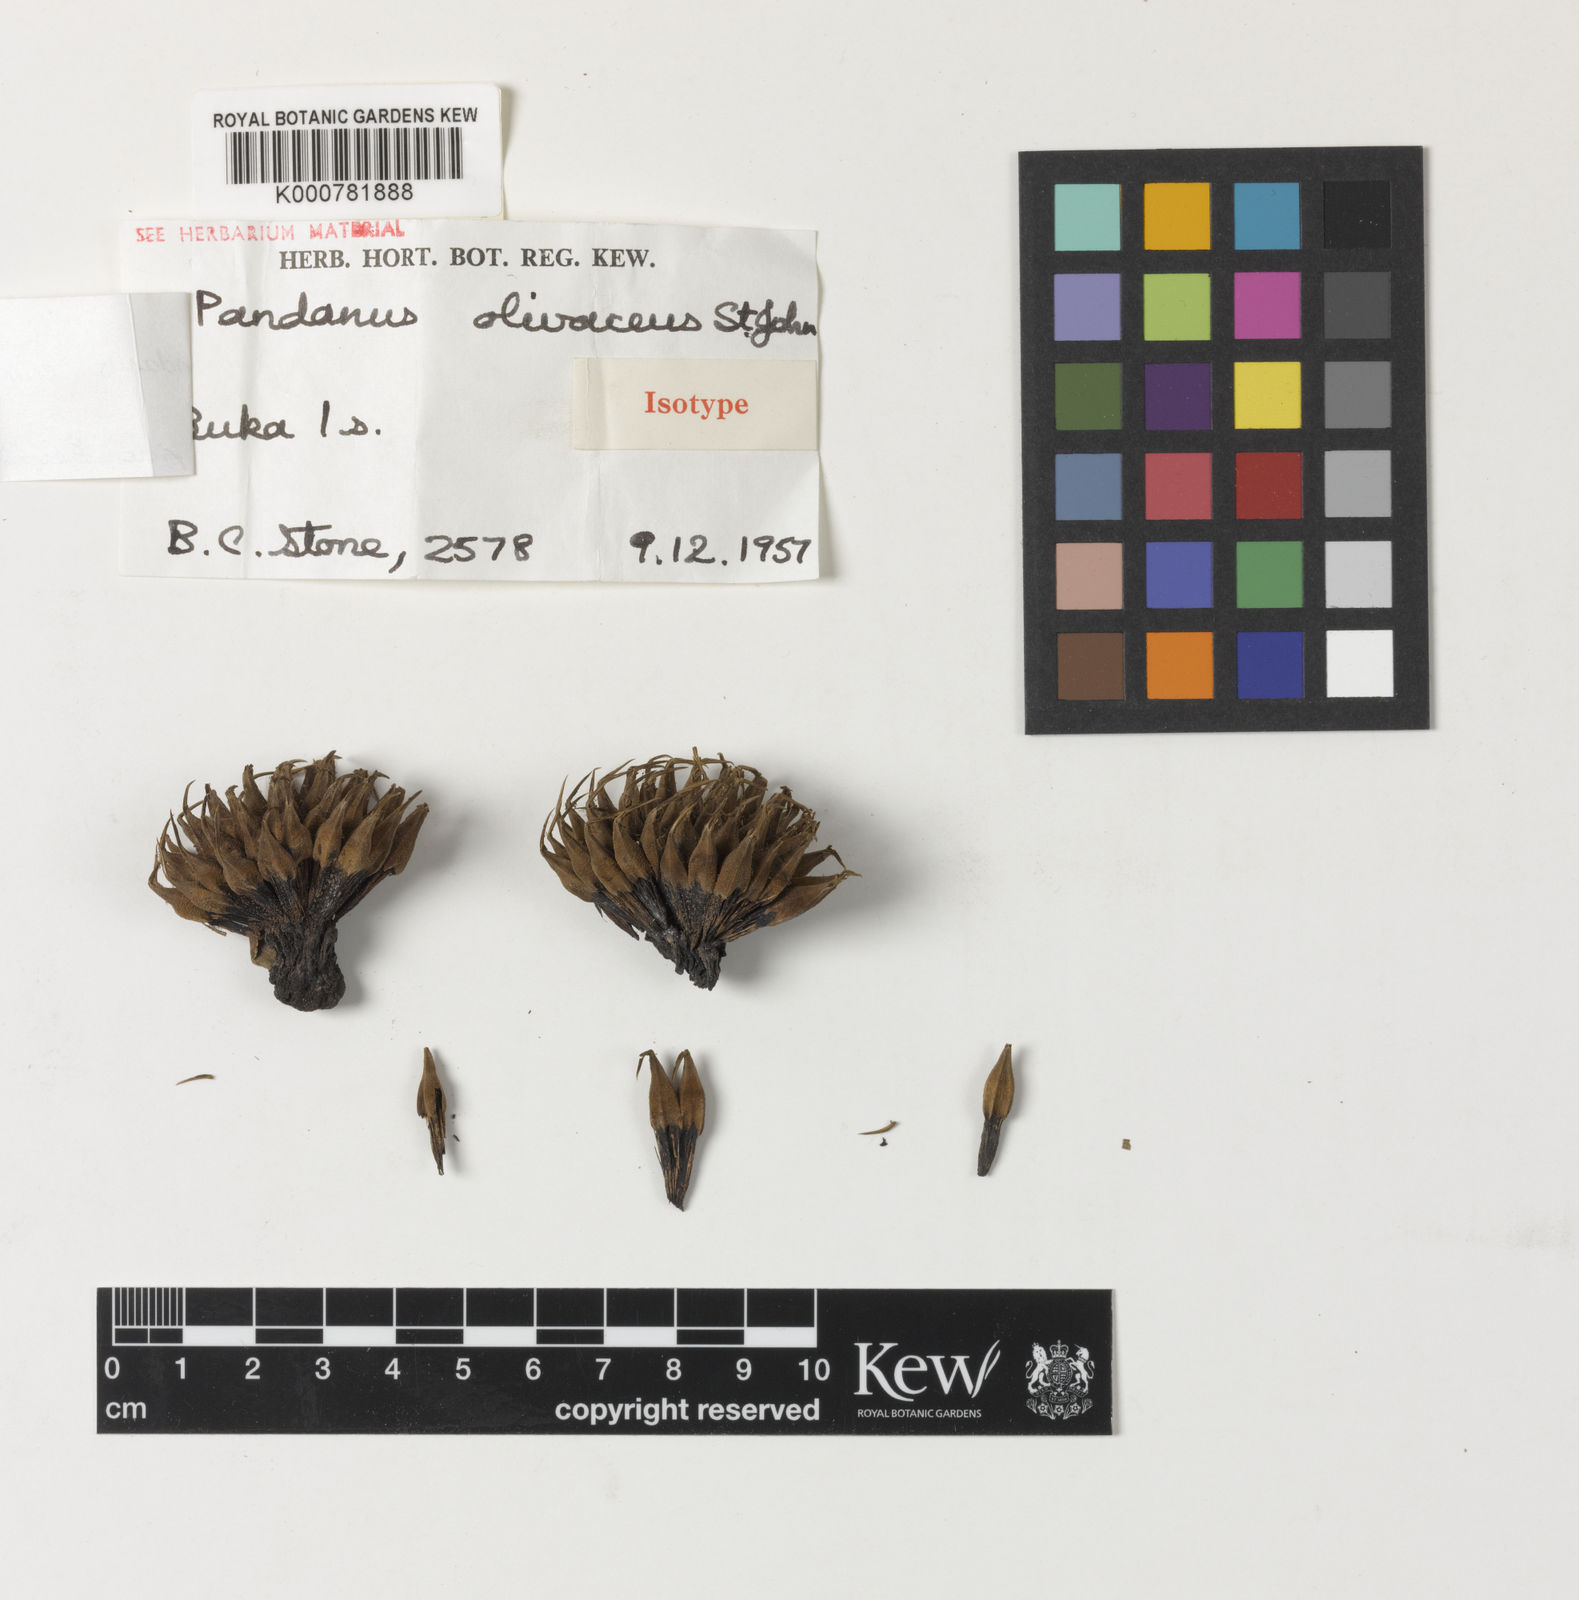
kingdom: Plantae
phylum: Tracheophyta
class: Liliopsida
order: Pandanales
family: Pandanaceae
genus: Benstonea
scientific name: Benstonea stenocarpa
